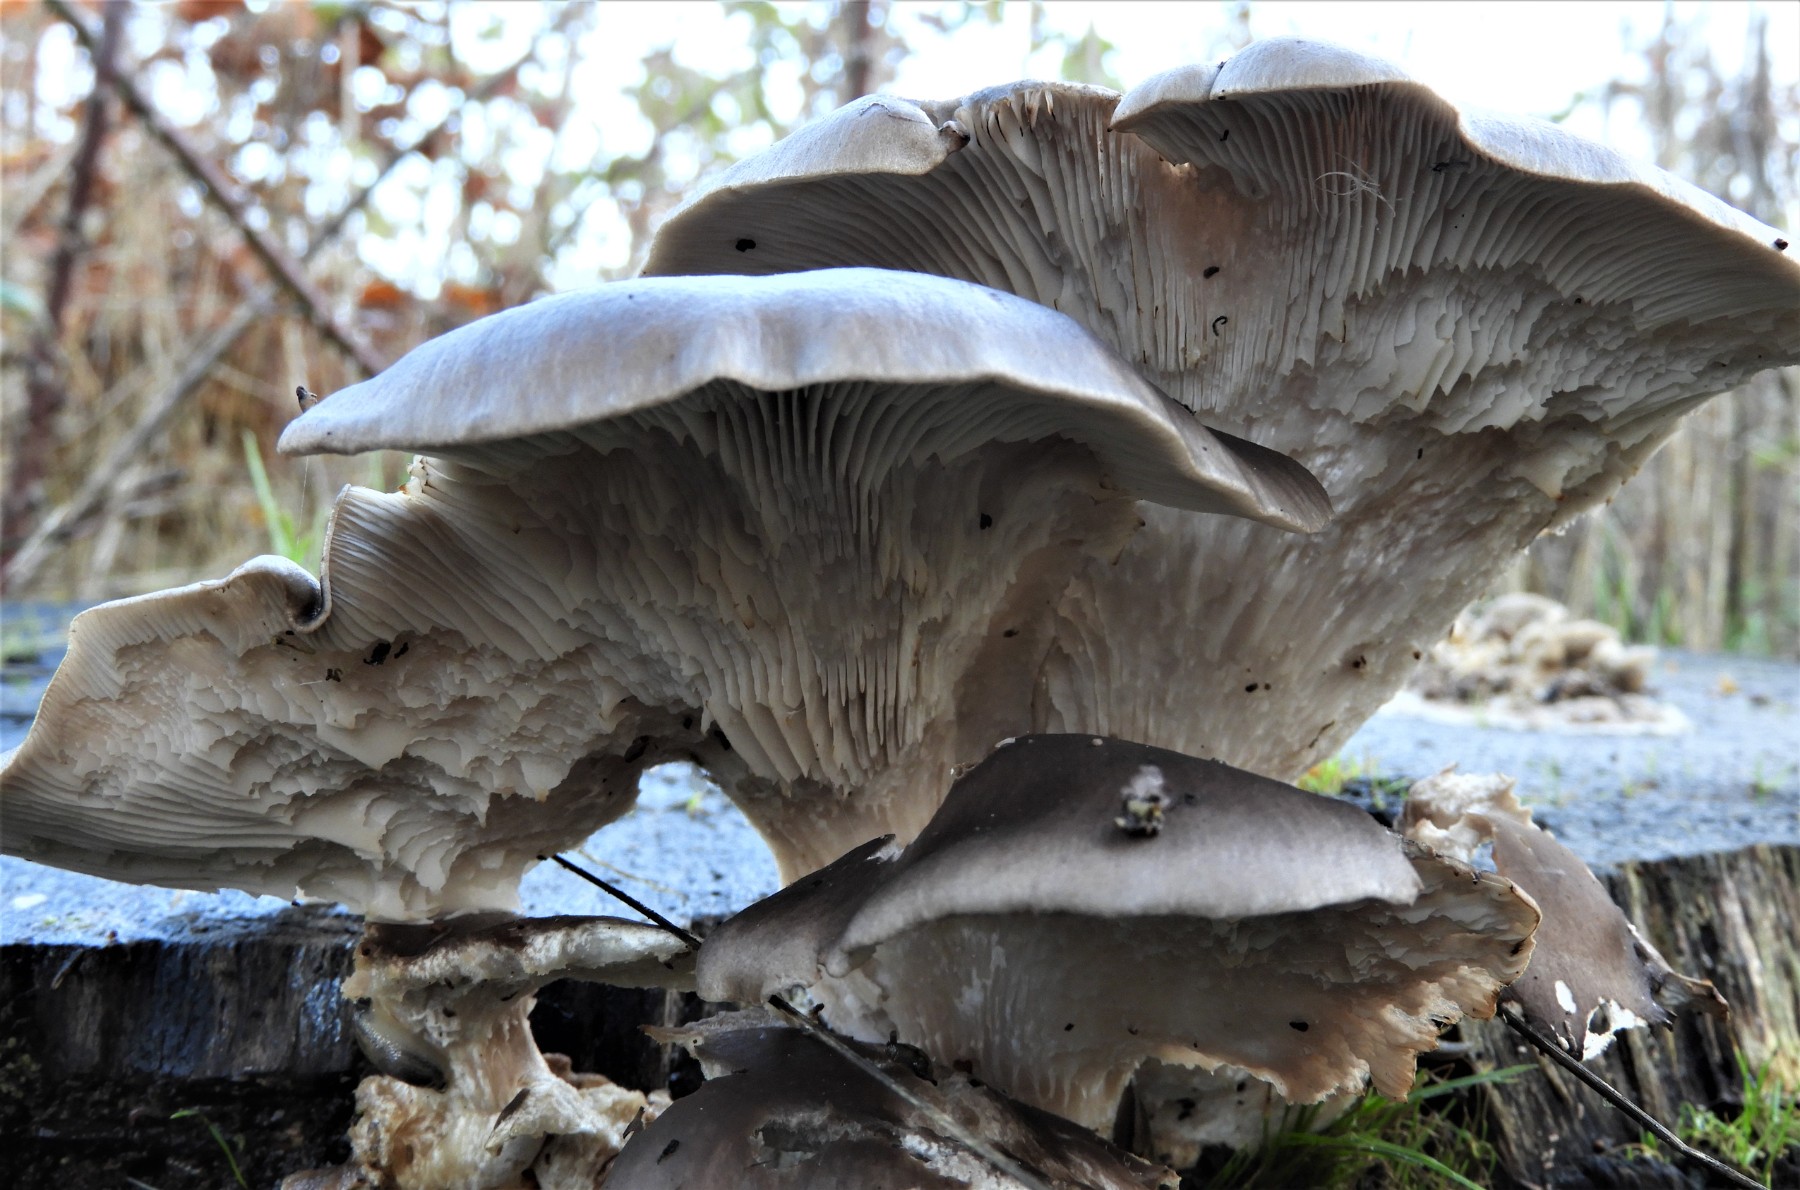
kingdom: Fungi
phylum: Basidiomycota
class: Agaricomycetes
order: Agaricales
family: Pleurotaceae
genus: Pleurotus
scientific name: Pleurotus ostreatus
